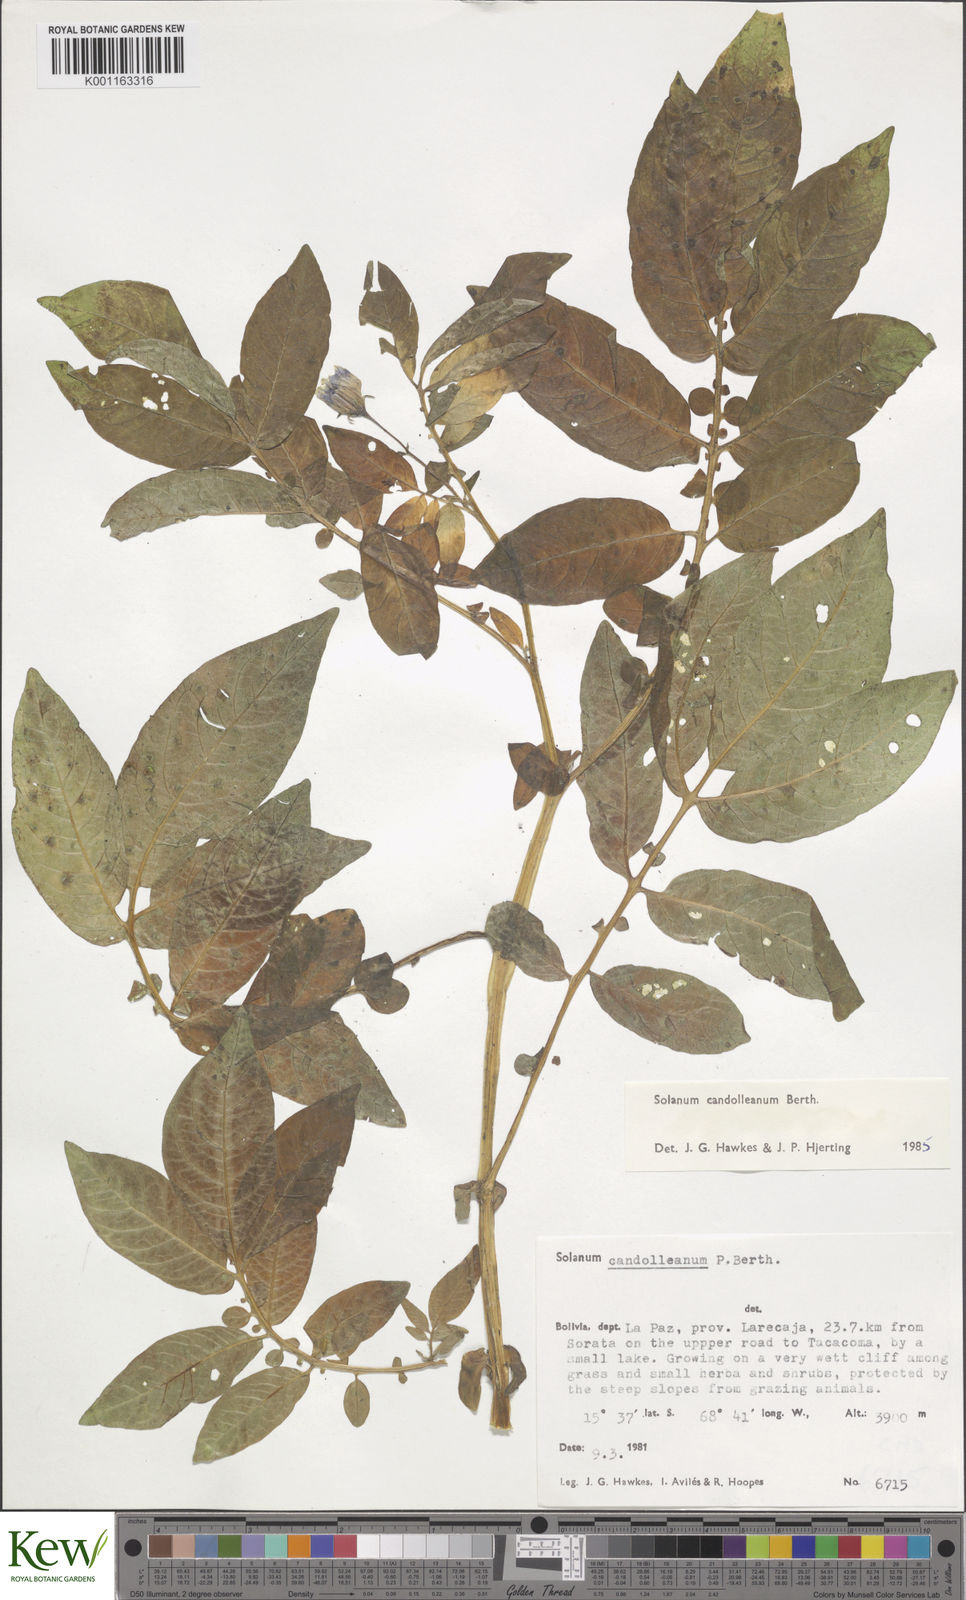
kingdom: Plantae
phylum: Tracheophyta
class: Magnoliopsida
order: Solanales
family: Solanaceae
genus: Solanum
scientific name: Solanum candolleanum
